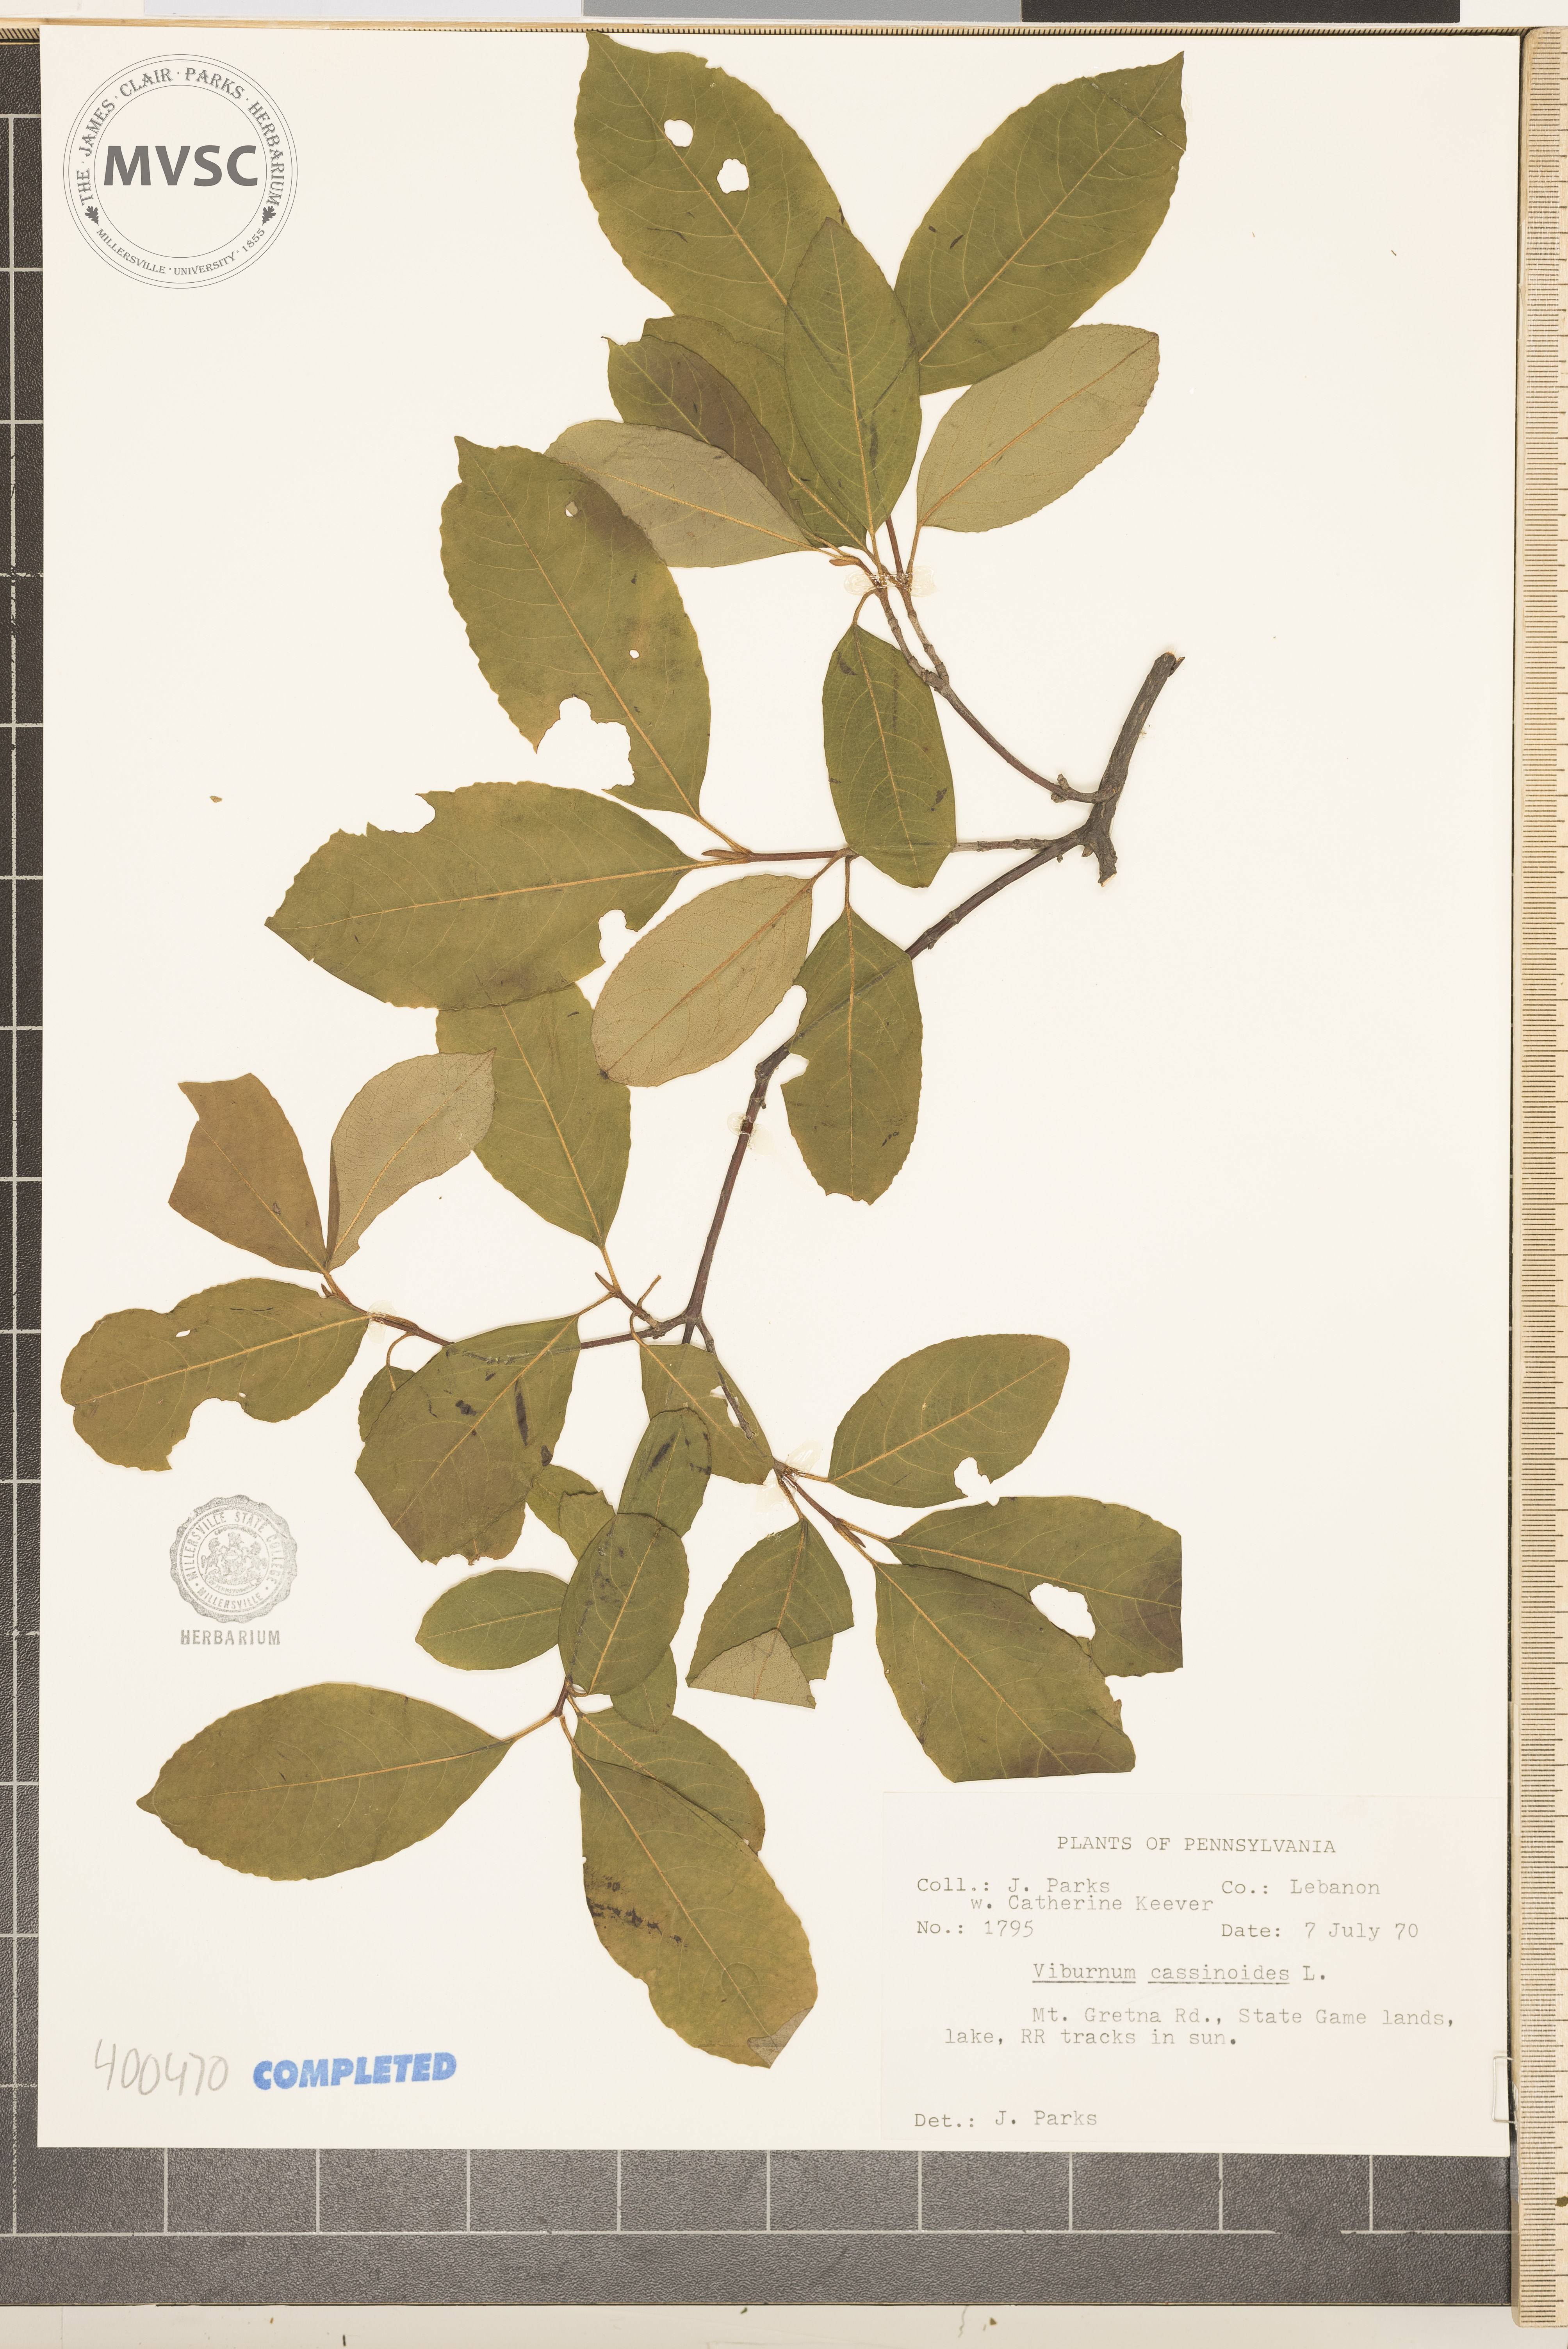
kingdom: Plantae
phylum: Tracheophyta
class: Magnoliopsida
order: Dipsacales
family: Viburnaceae
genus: Viburnum
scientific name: Viburnum cassinoides
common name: viburnum
